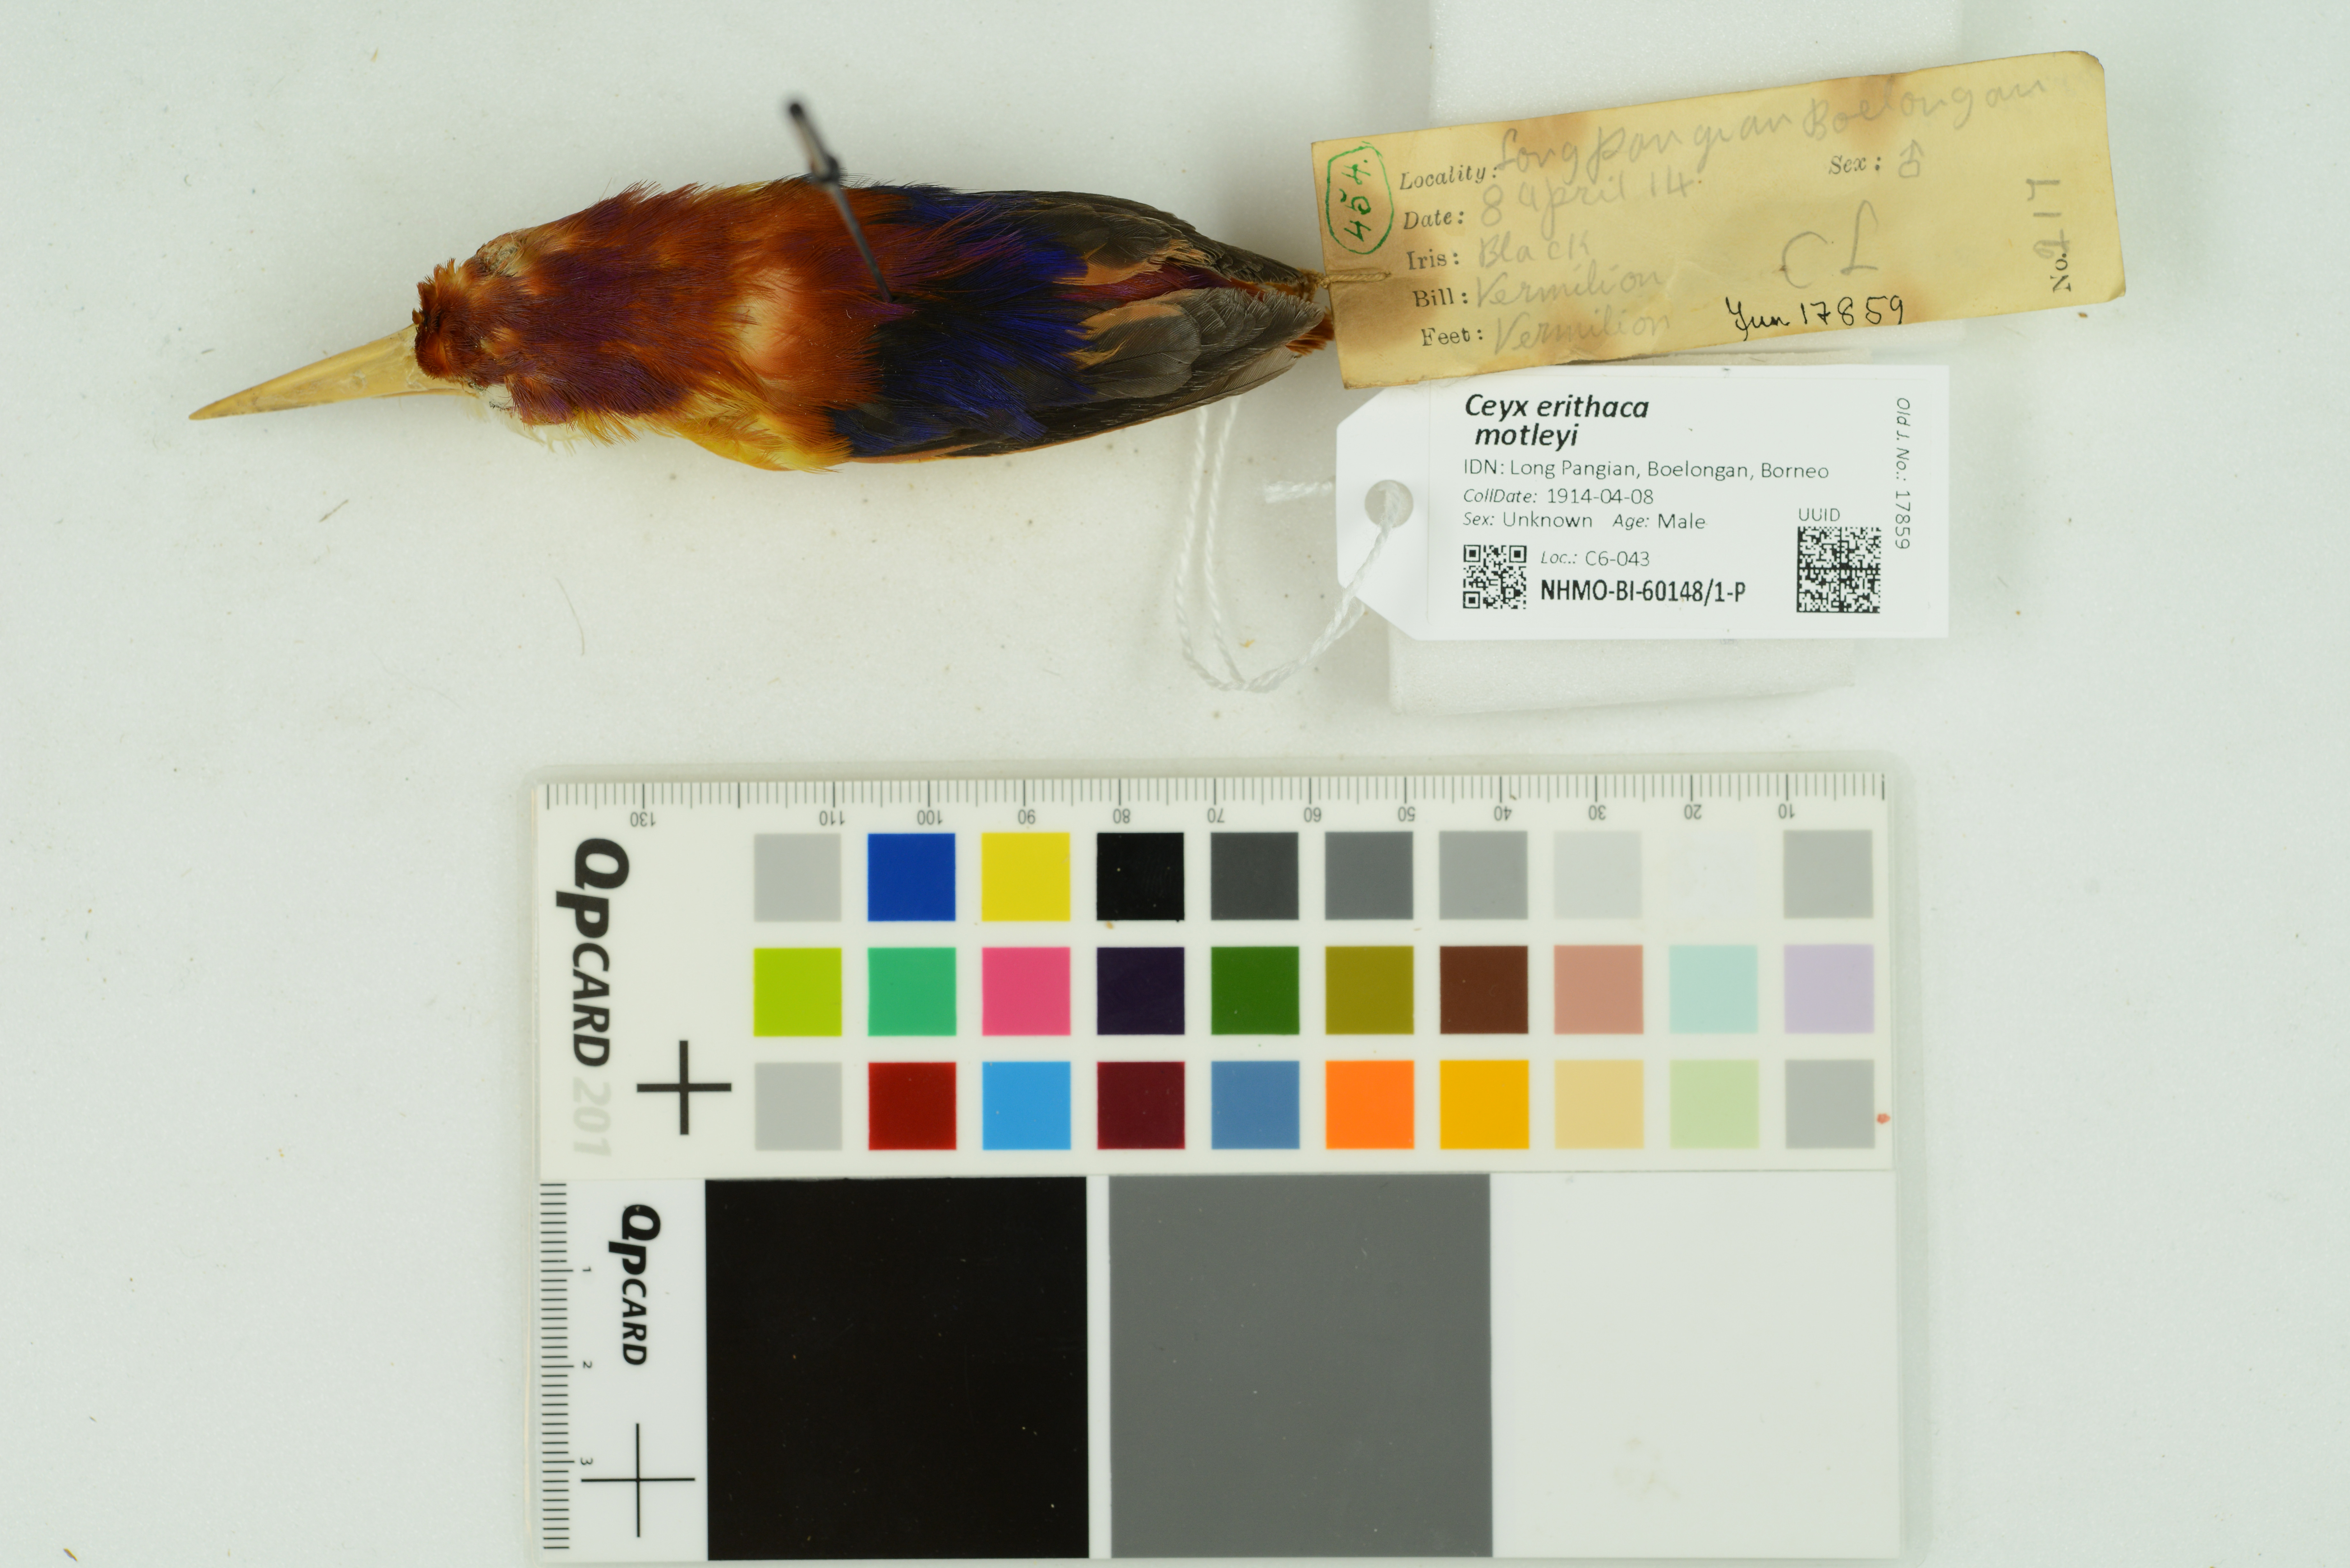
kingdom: Animalia
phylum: Chordata
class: Aves
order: Coraciiformes
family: Alcedinidae
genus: Ceyx
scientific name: Ceyx erithaca
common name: Oriental dwarf kingfisher
